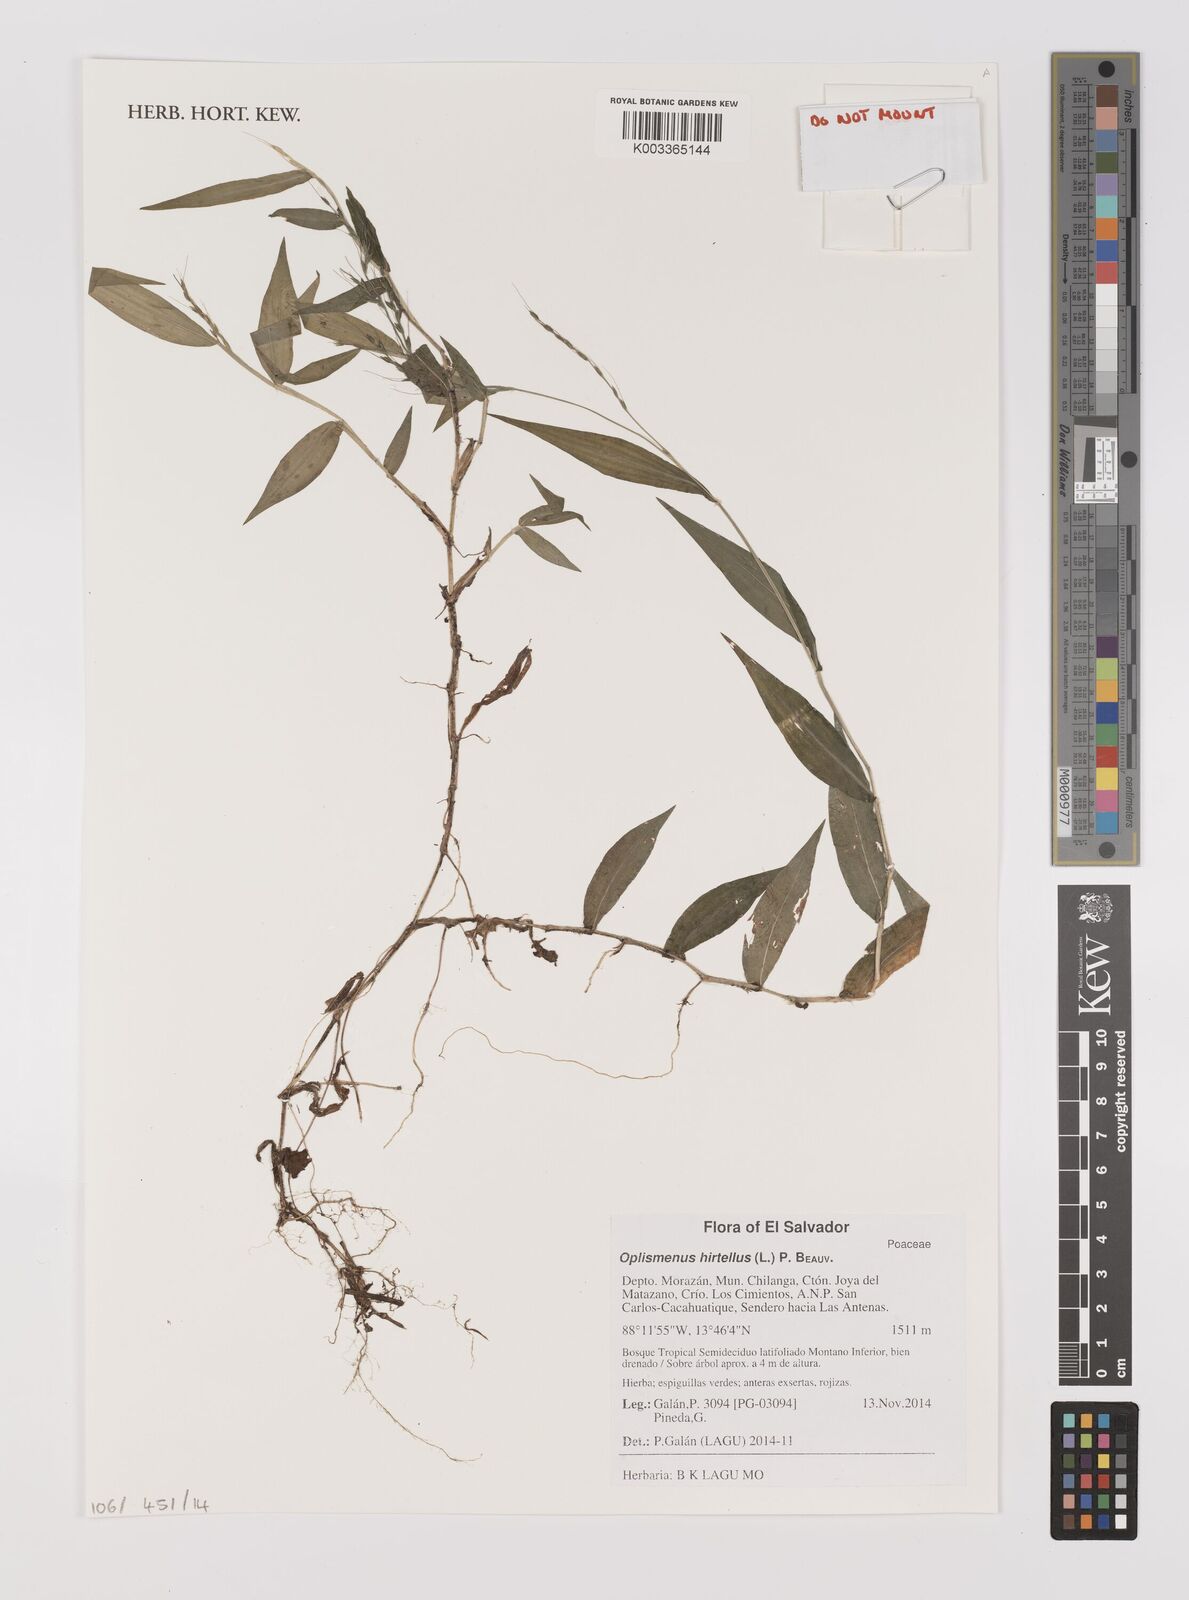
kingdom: Plantae
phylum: Tracheophyta
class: Liliopsida
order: Poales
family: Poaceae
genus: Oplismenus
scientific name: Oplismenus hirtellus
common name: Basketgrass
